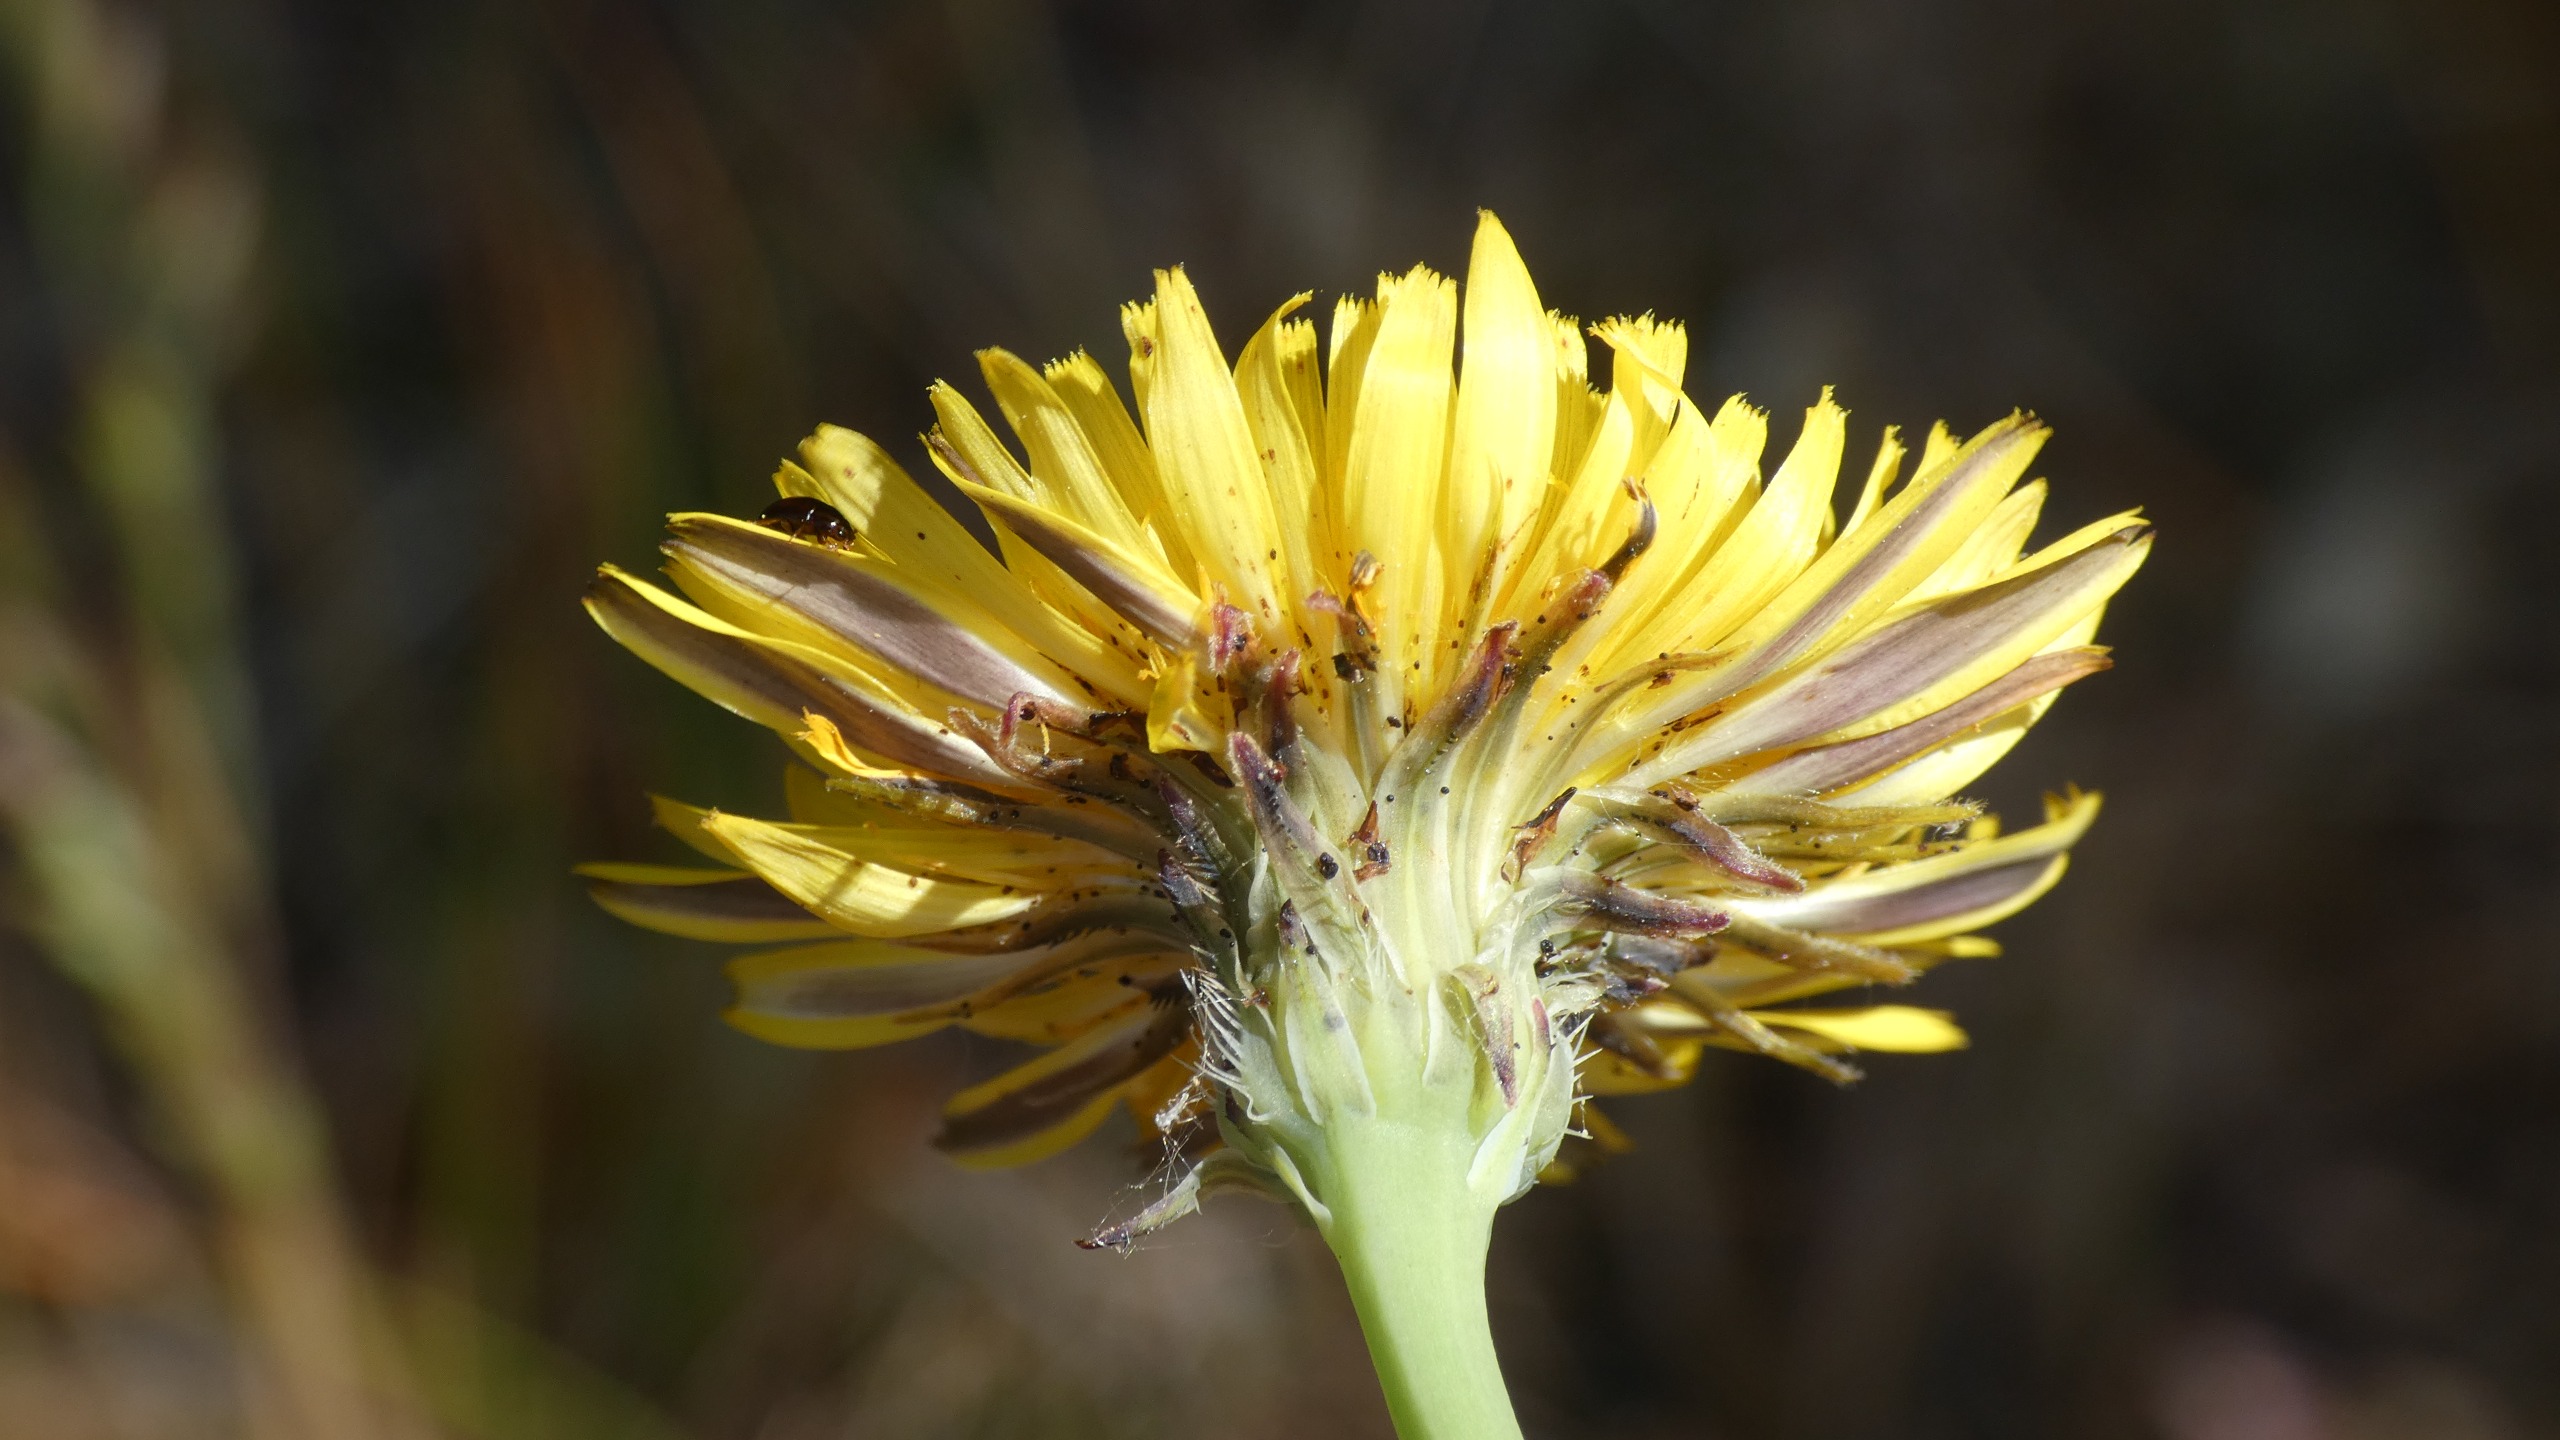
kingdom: Plantae
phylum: Tracheophyta
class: Magnoliopsida
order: Asterales
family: Asteraceae
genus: Hypochaeris
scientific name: Hypochaeris radicata
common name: Almindelig kongepen
